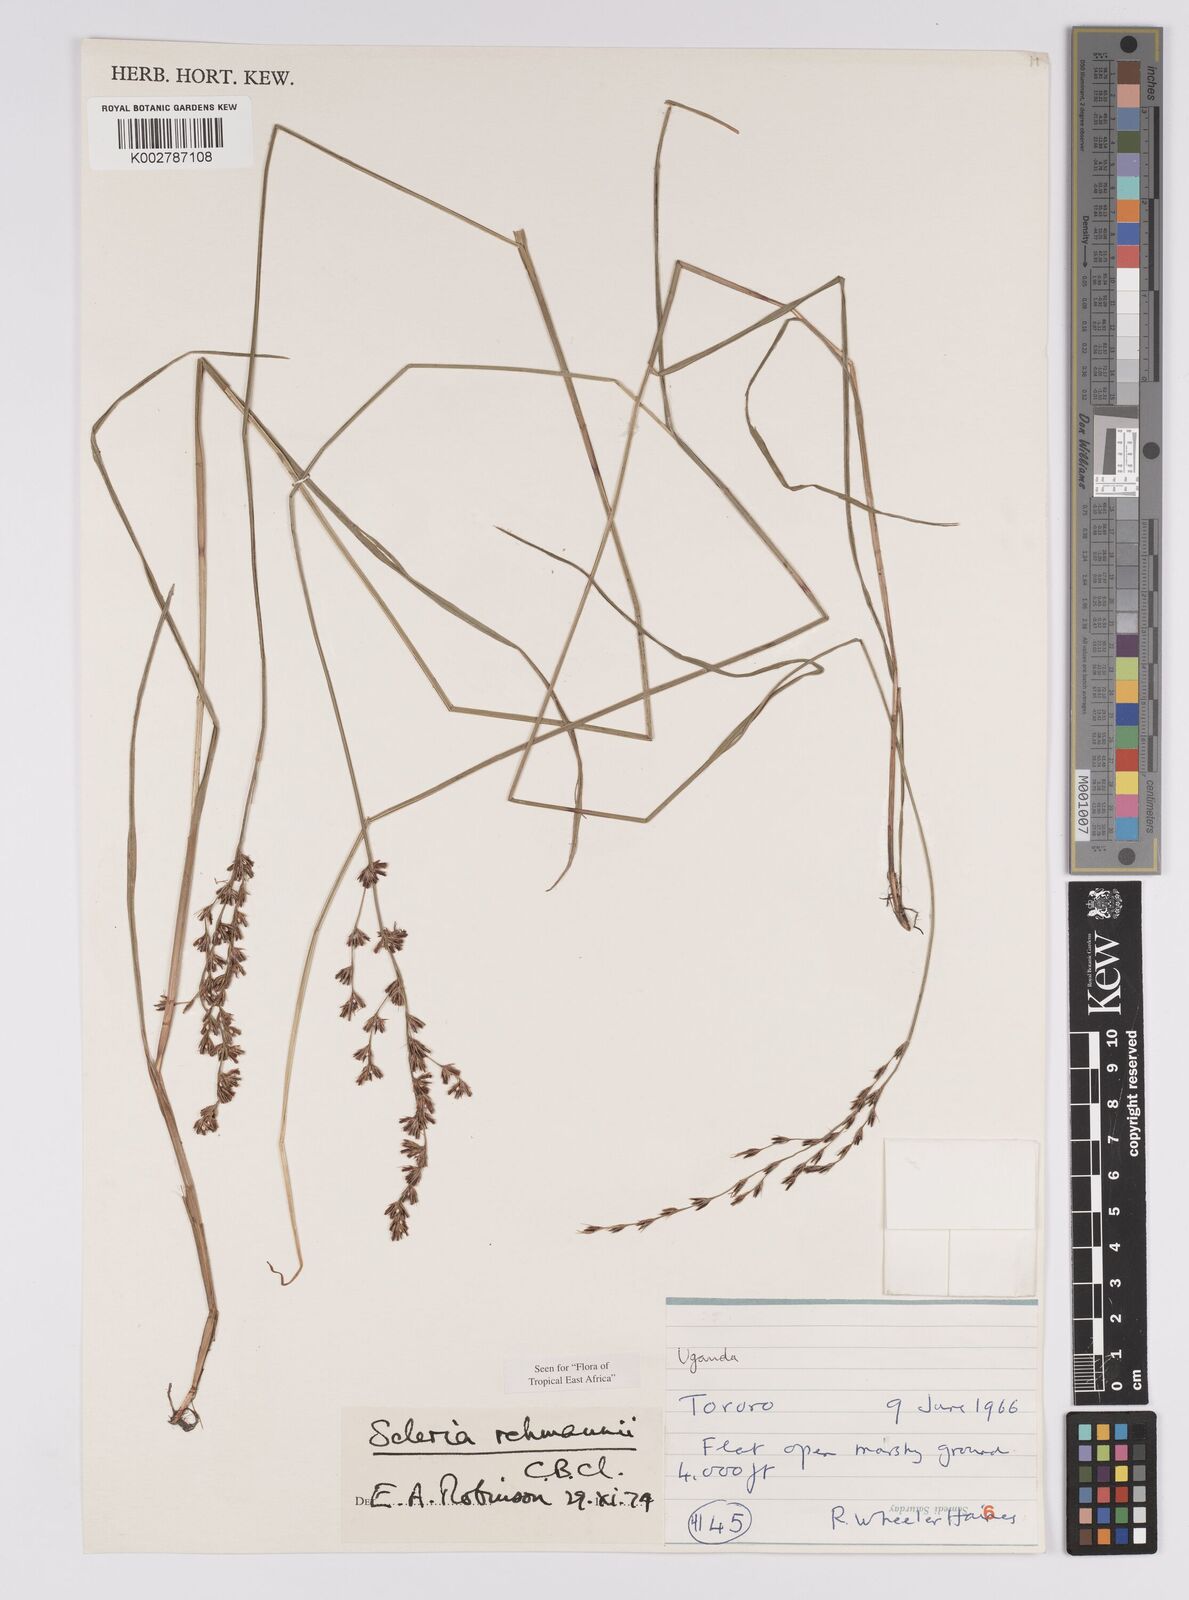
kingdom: Plantae
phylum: Tracheophyta
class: Liliopsida
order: Poales
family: Cyperaceae
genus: Scleria
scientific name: Scleria rehmannii
